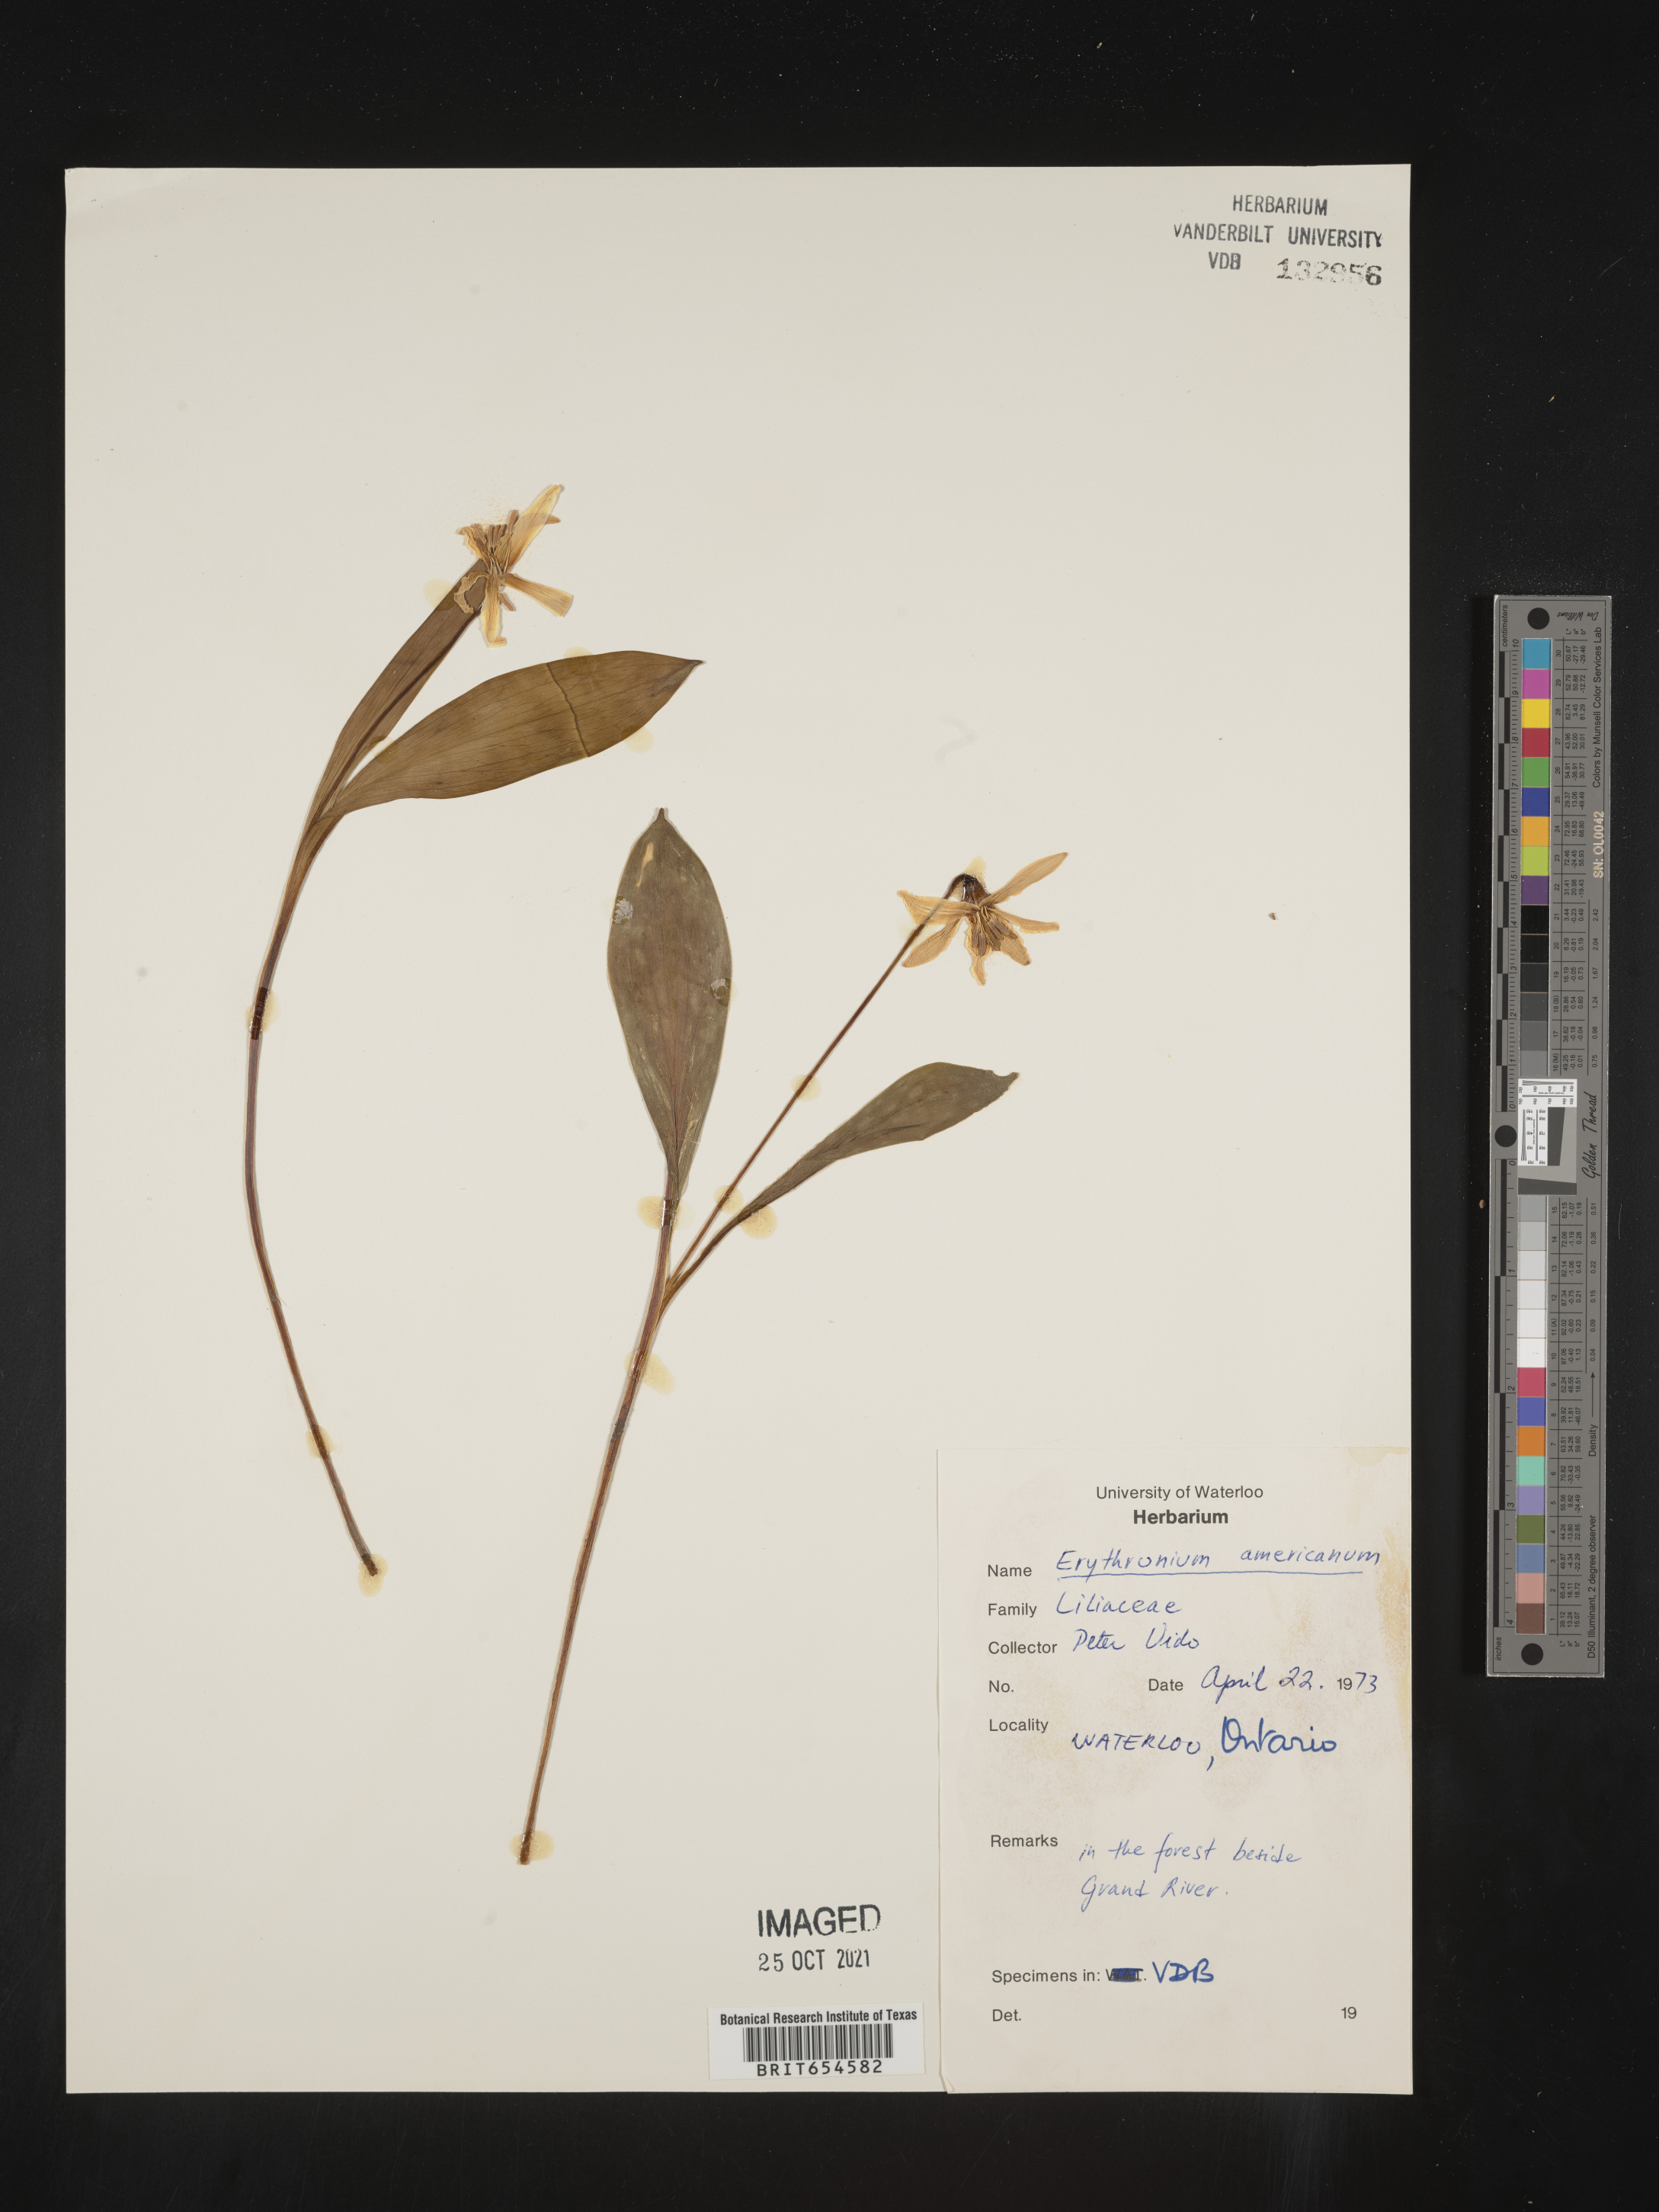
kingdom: Plantae
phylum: Tracheophyta
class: Liliopsida
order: Liliales
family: Liliaceae
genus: Erythronium
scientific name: Erythronium
